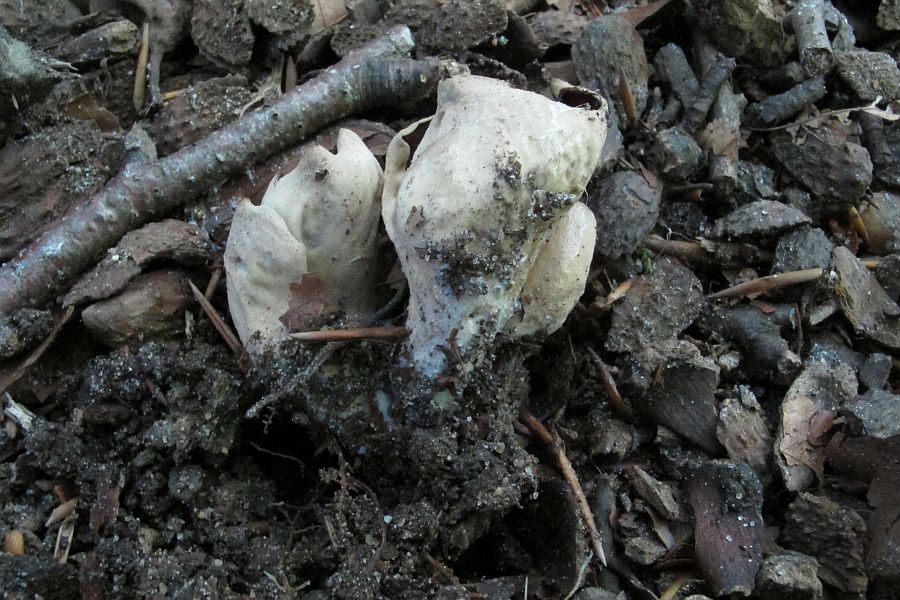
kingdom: Fungi
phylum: Ascomycota
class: Pezizomycetes
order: Pezizales
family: Otideaceae
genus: Otidea
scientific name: Otidea alutacea
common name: læder-ørebæger
